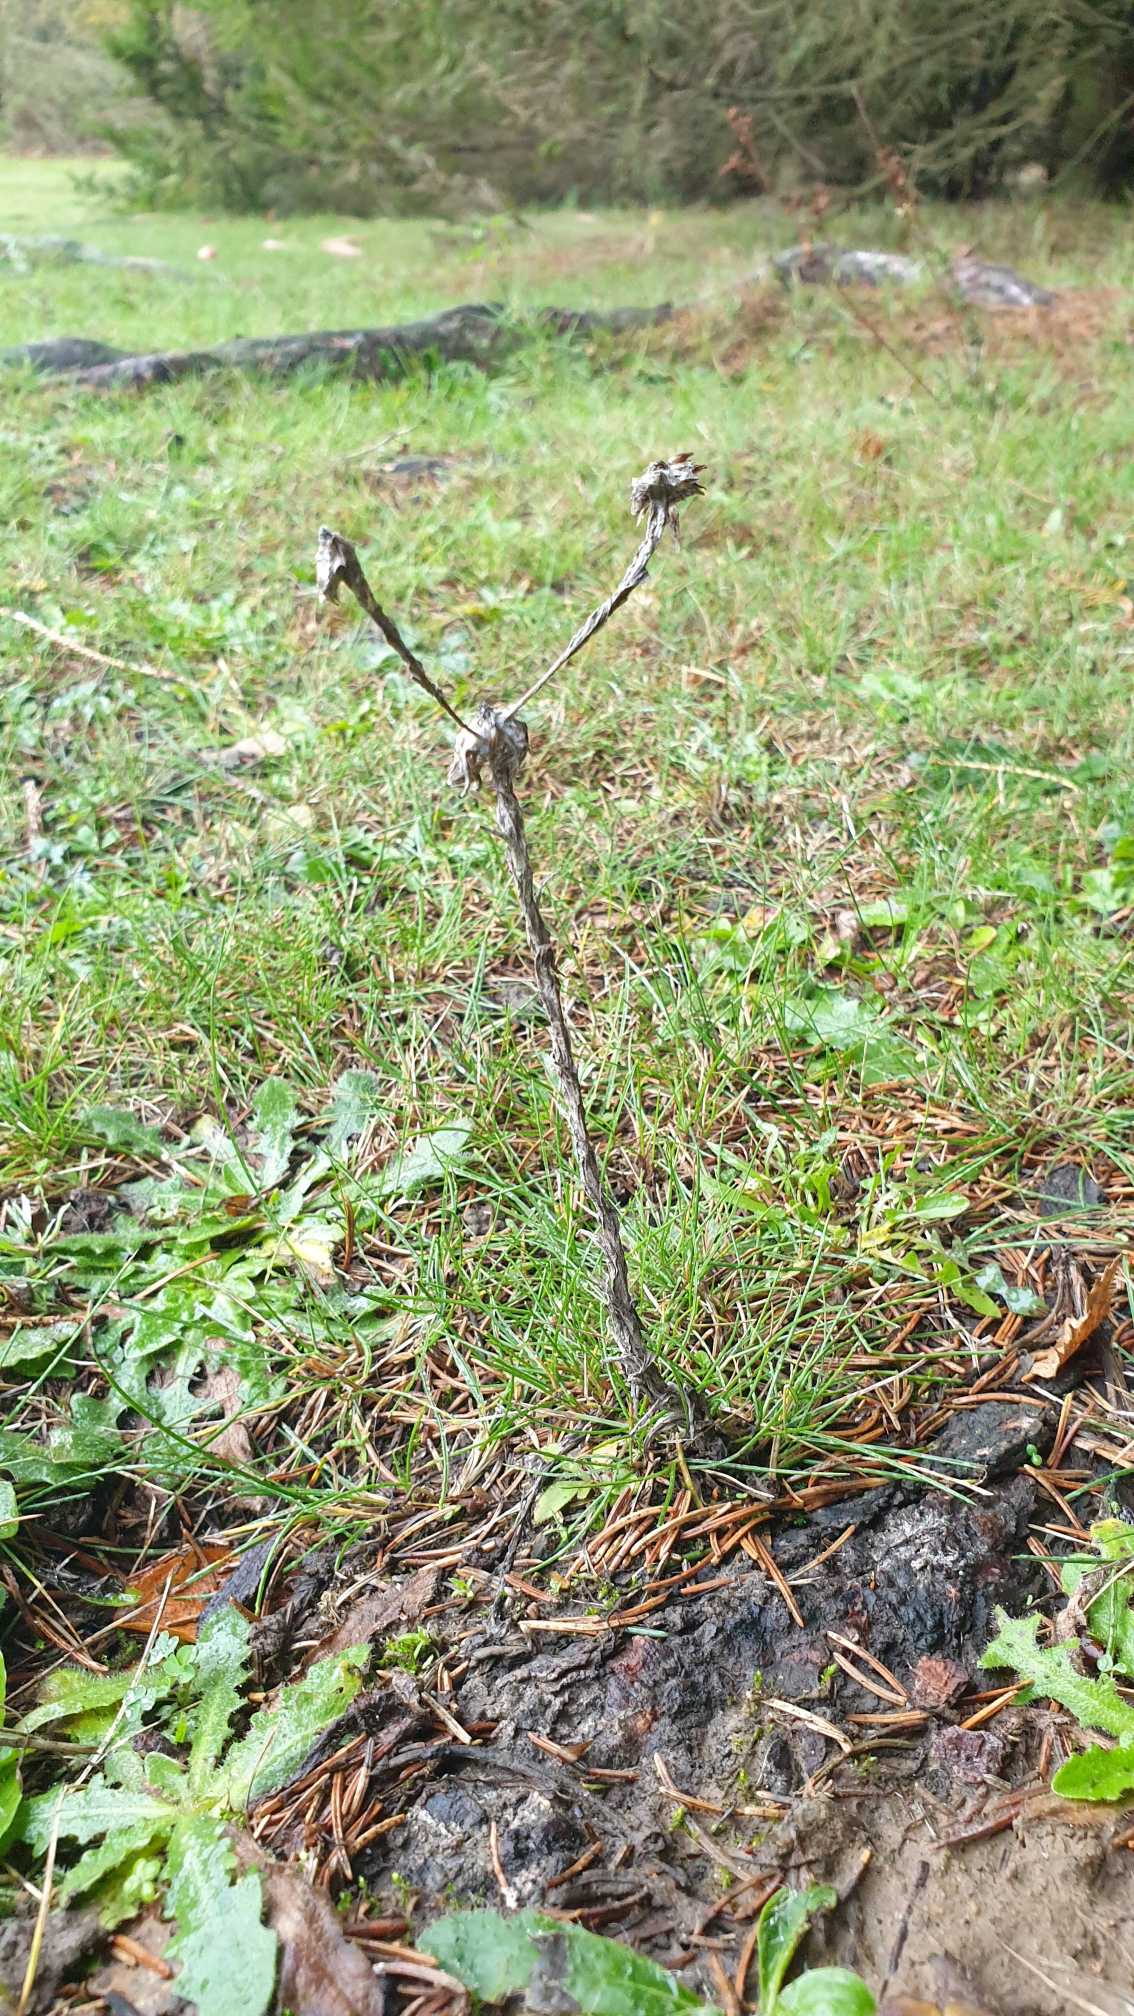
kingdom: Plantae
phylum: Tracheophyta
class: Magnoliopsida
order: Asterales
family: Asteraceae
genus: Filago
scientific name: Filago germanica
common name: Kugle-museurt
